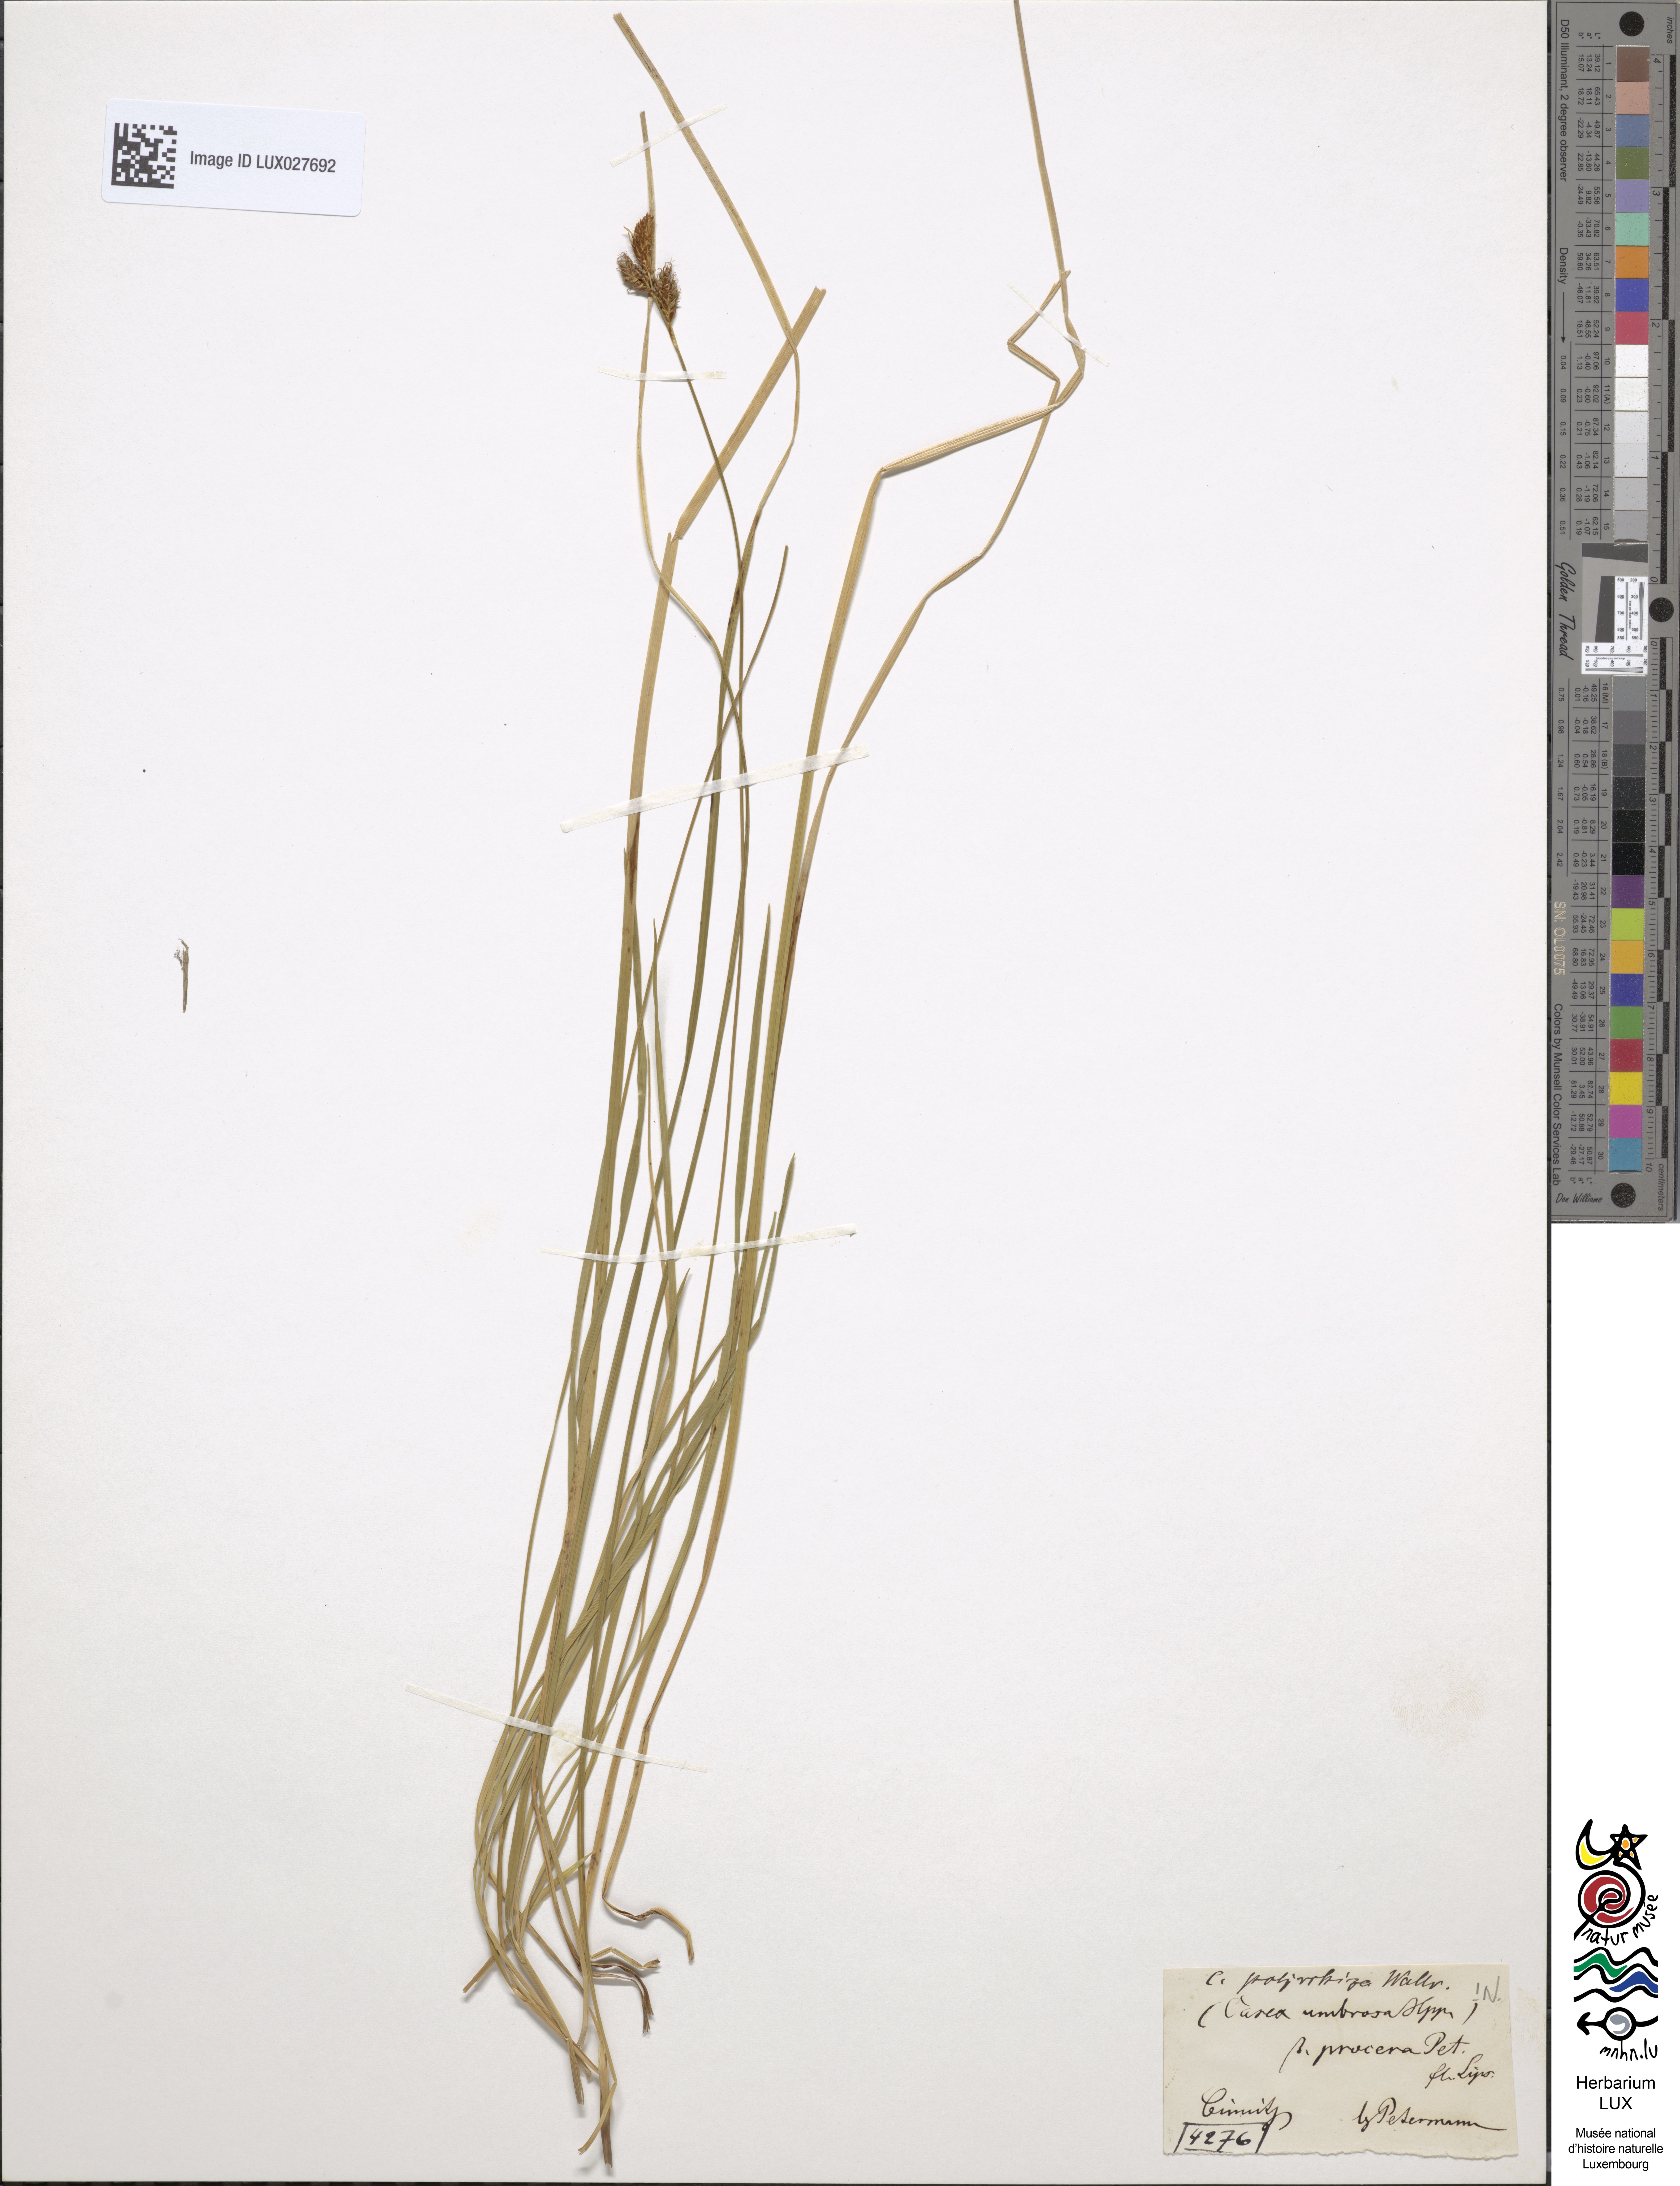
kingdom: Plantae
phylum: Tracheophyta
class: Liliopsida
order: Poales
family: Cyperaceae
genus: Carex
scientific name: Carex umbrosa
